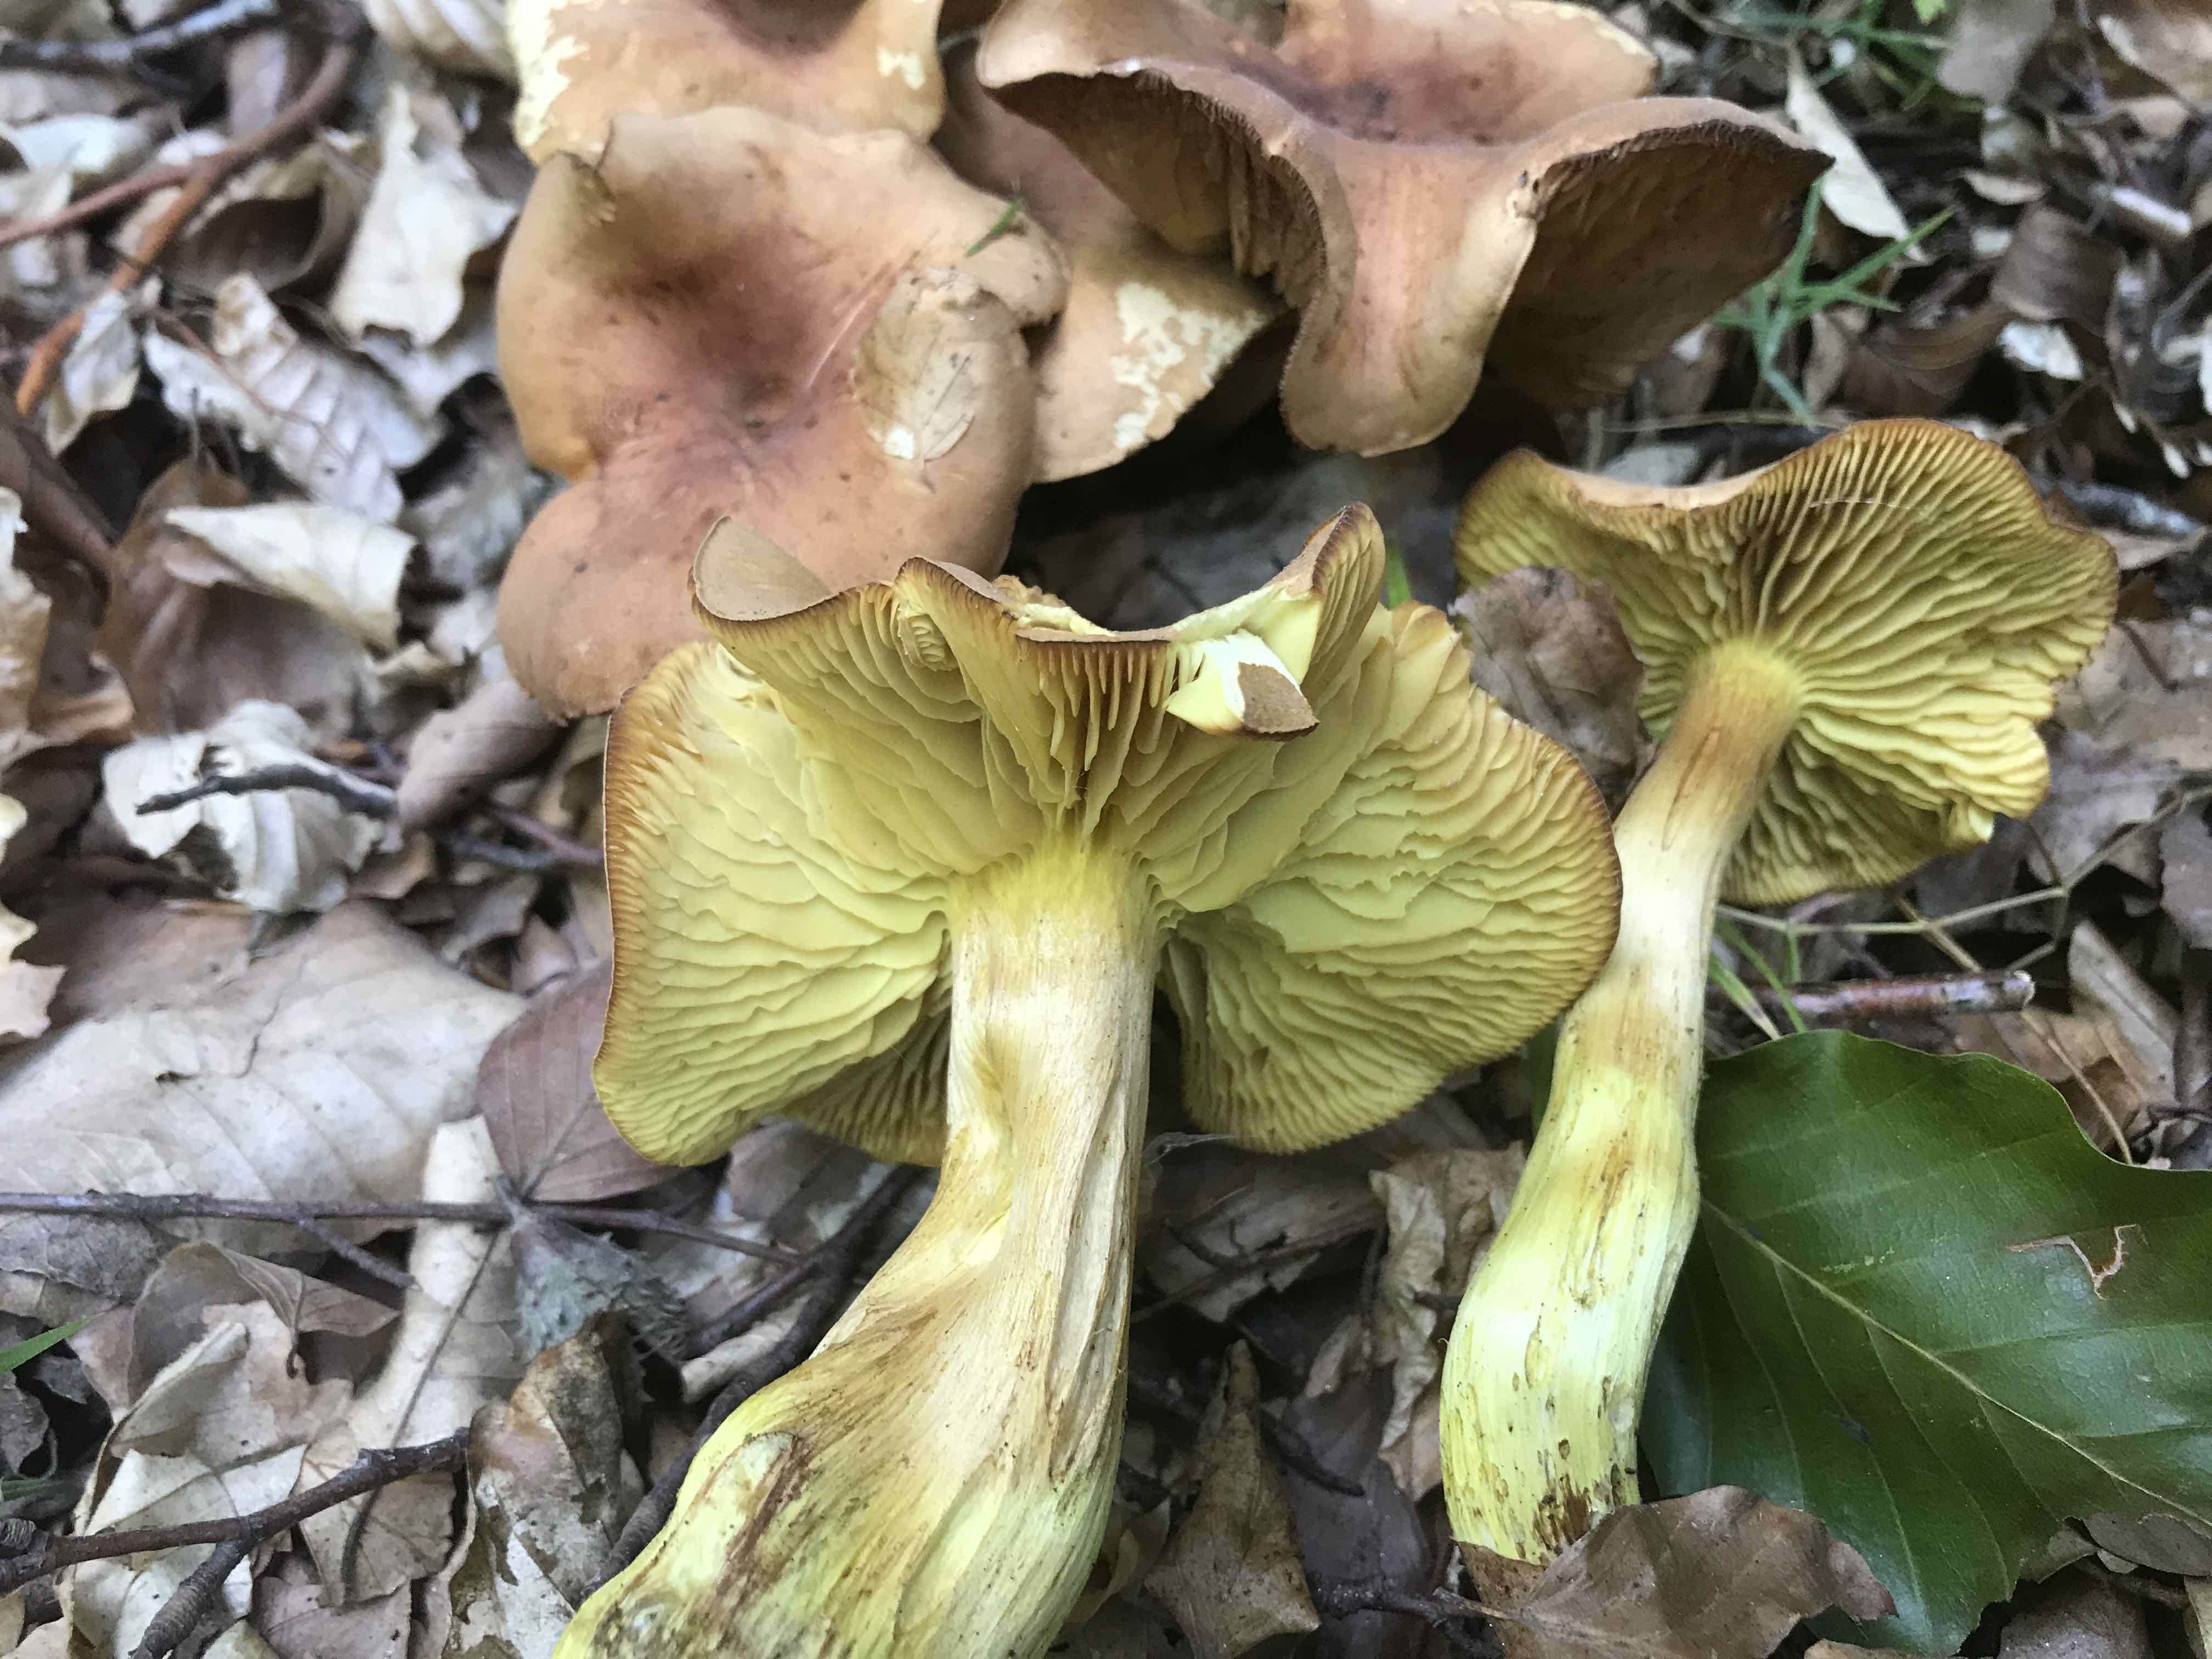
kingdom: Fungi
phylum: Basidiomycota
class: Agaricomycetes
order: Agaricales
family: Tricholomataceae
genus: Tricholoma
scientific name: Tricholoma sulphureum
